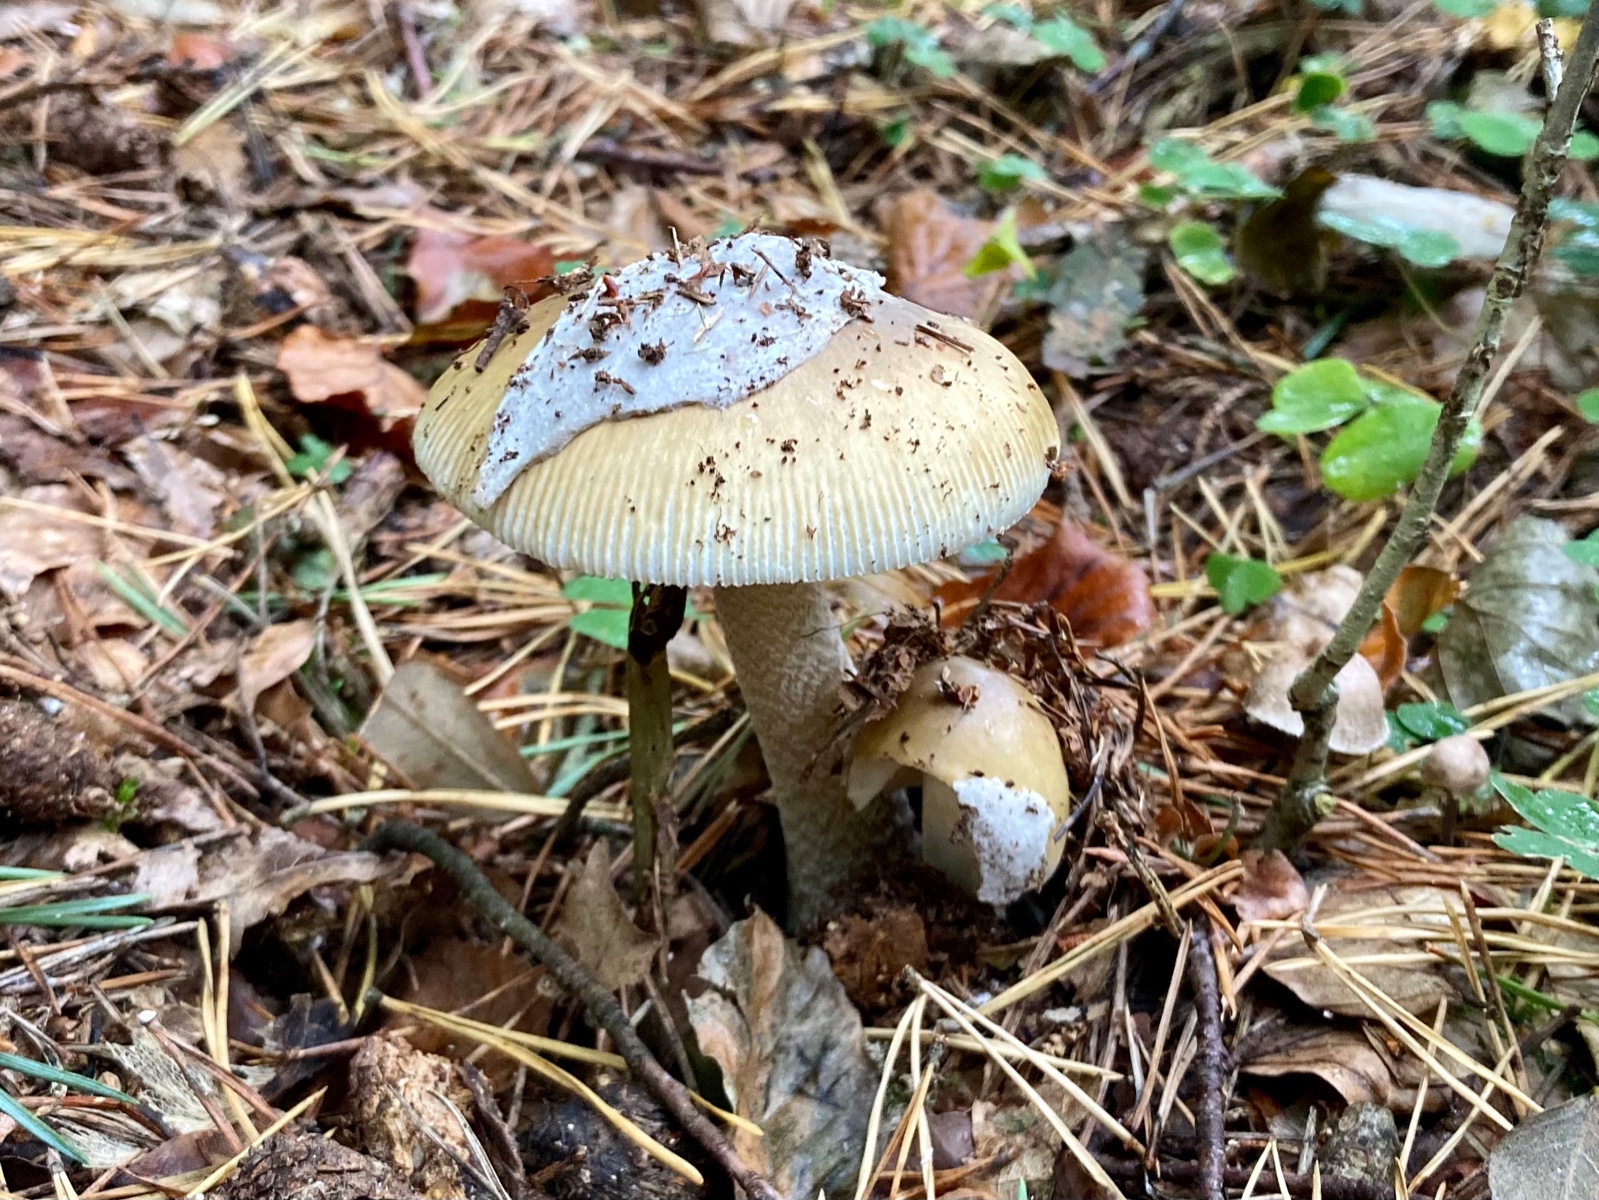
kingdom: Fungi
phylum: Basidiomycota
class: Agaricomycetes
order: Agaricales
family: Amanitaceae
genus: Amanita
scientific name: Amanita submembranacea
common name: gråspættet kam-fluesvamp
